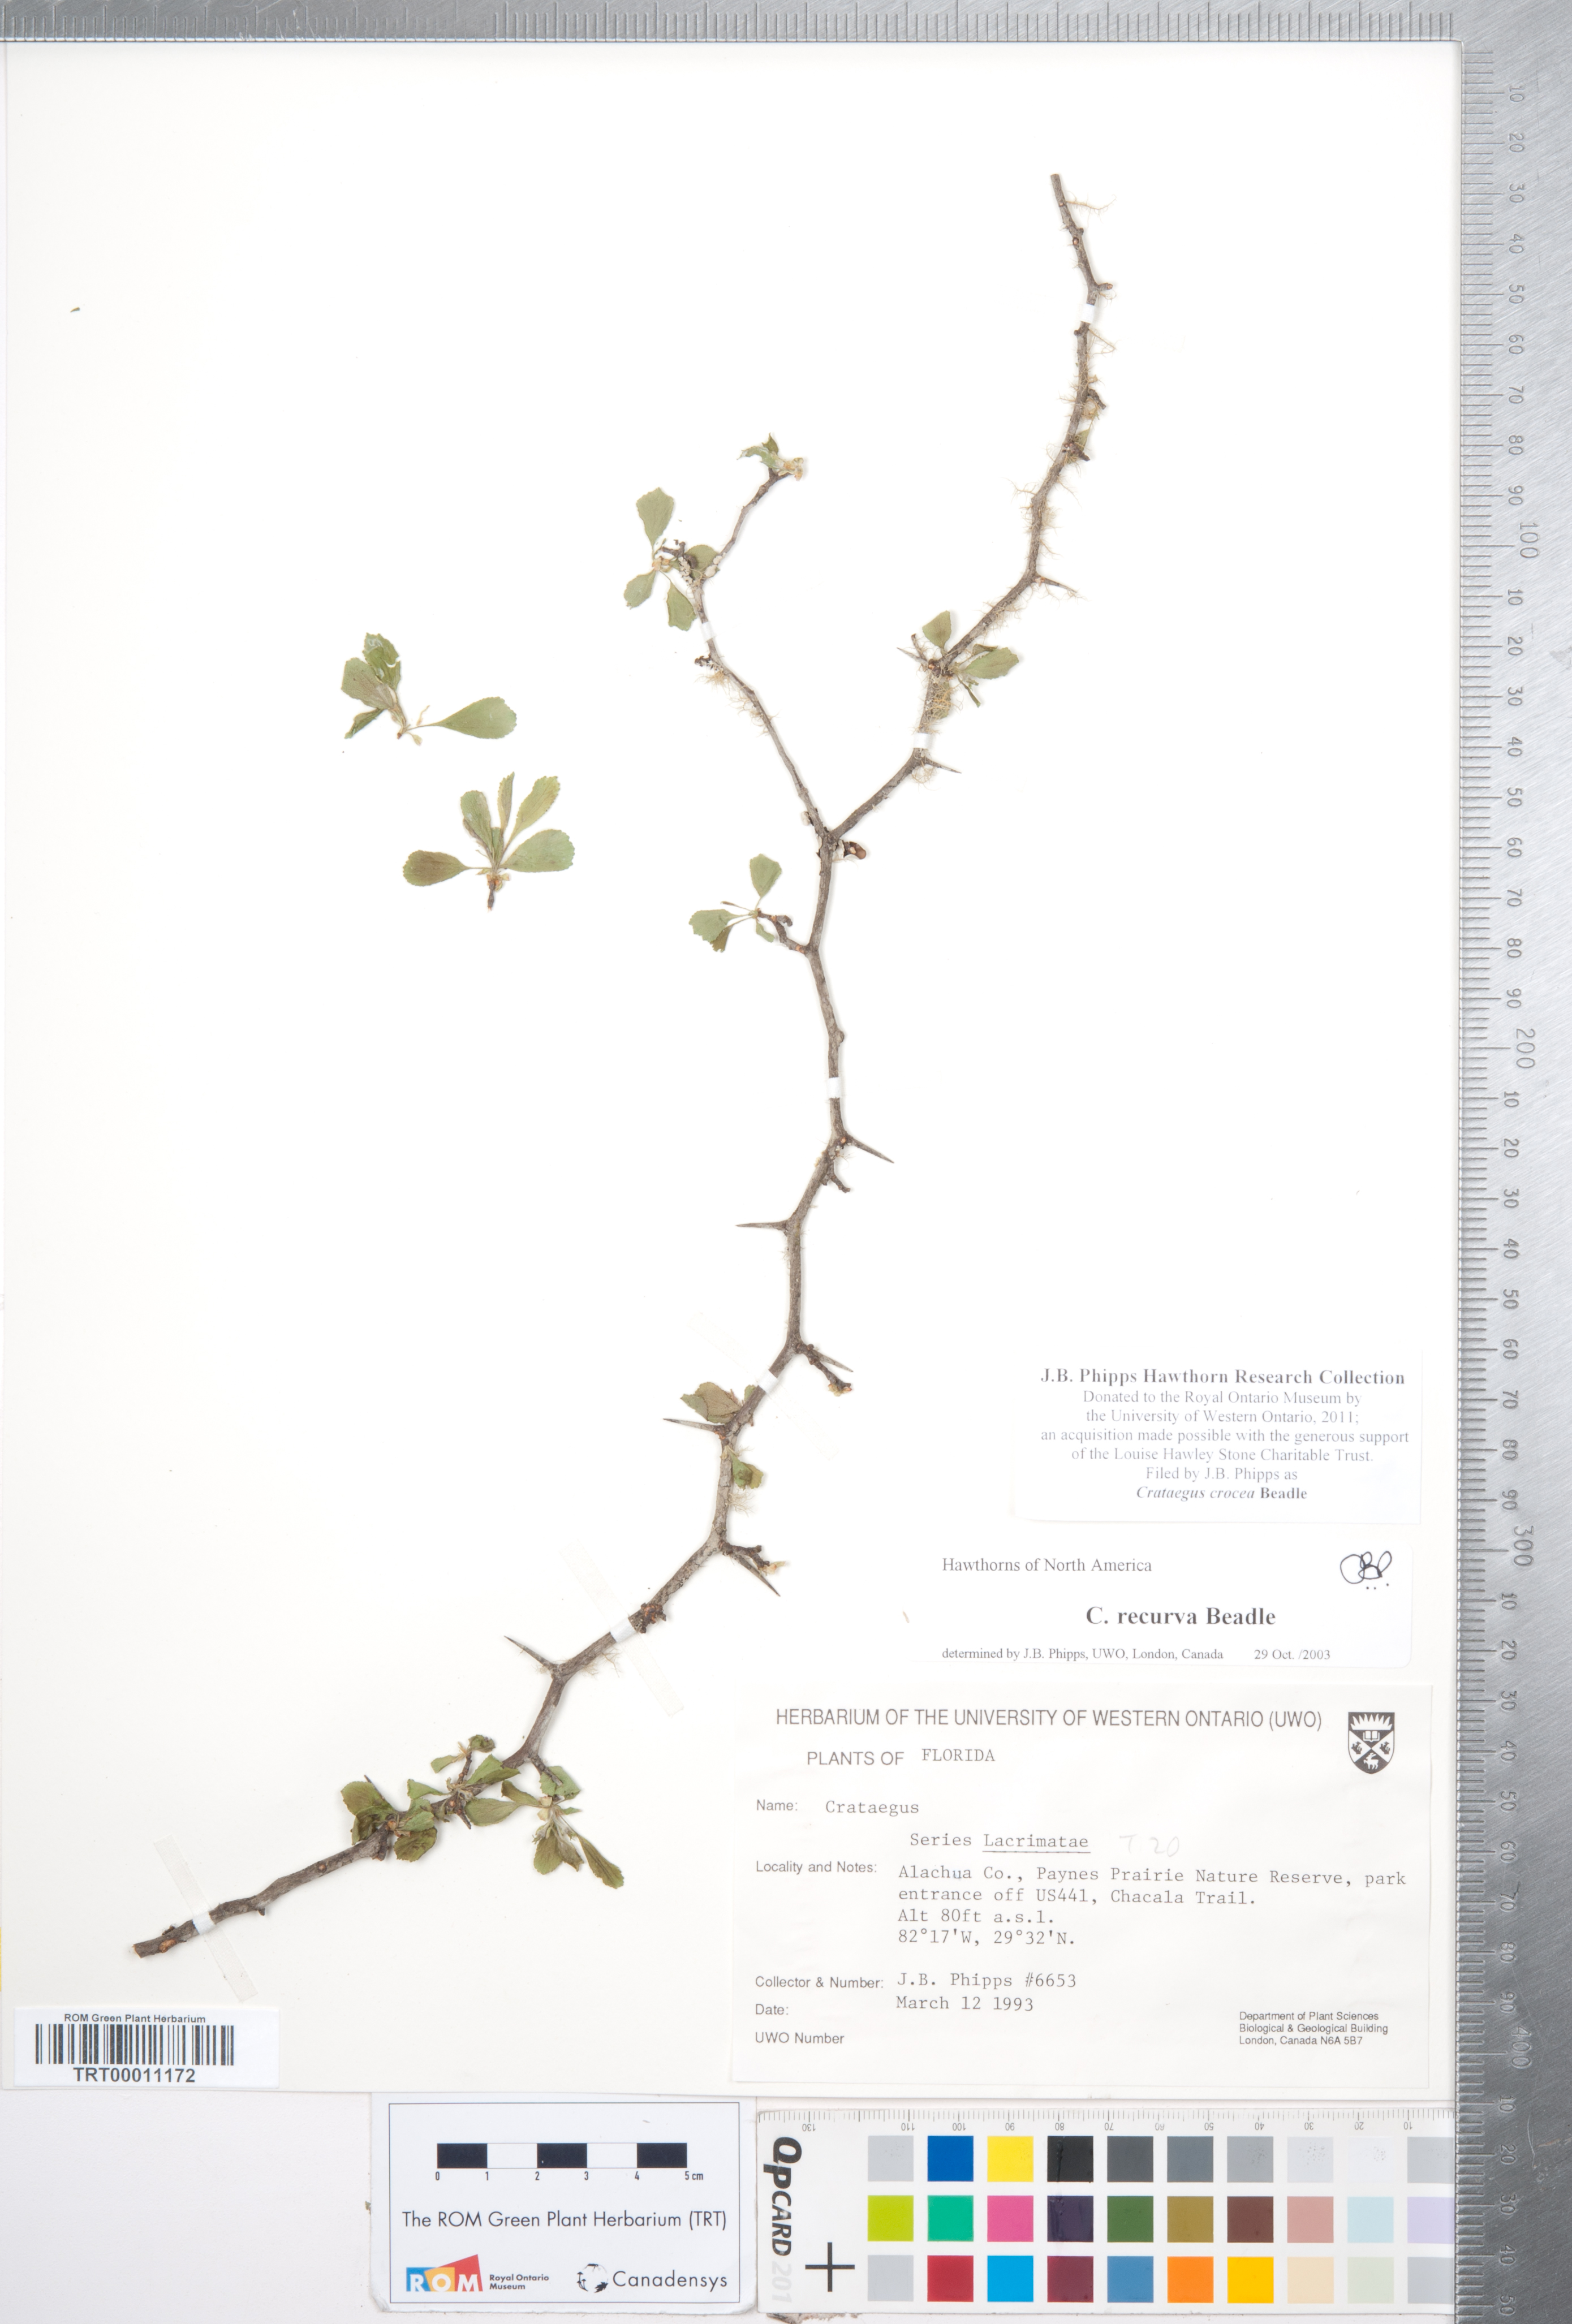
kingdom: Plantae
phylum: Tracheophyta
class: Magnoliopsida
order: Rosales
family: Rosaceae
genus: Crataegus
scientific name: Crataegus lassa
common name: Florida hawthorn
